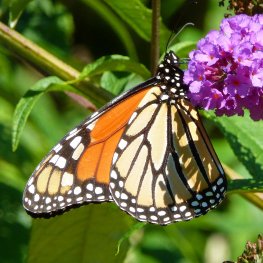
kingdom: Animalia
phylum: Arthropoda
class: Insecta
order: Lepidoptera
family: Nymphalidae
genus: Danaus
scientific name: Danaus plexippus
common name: Monarch
